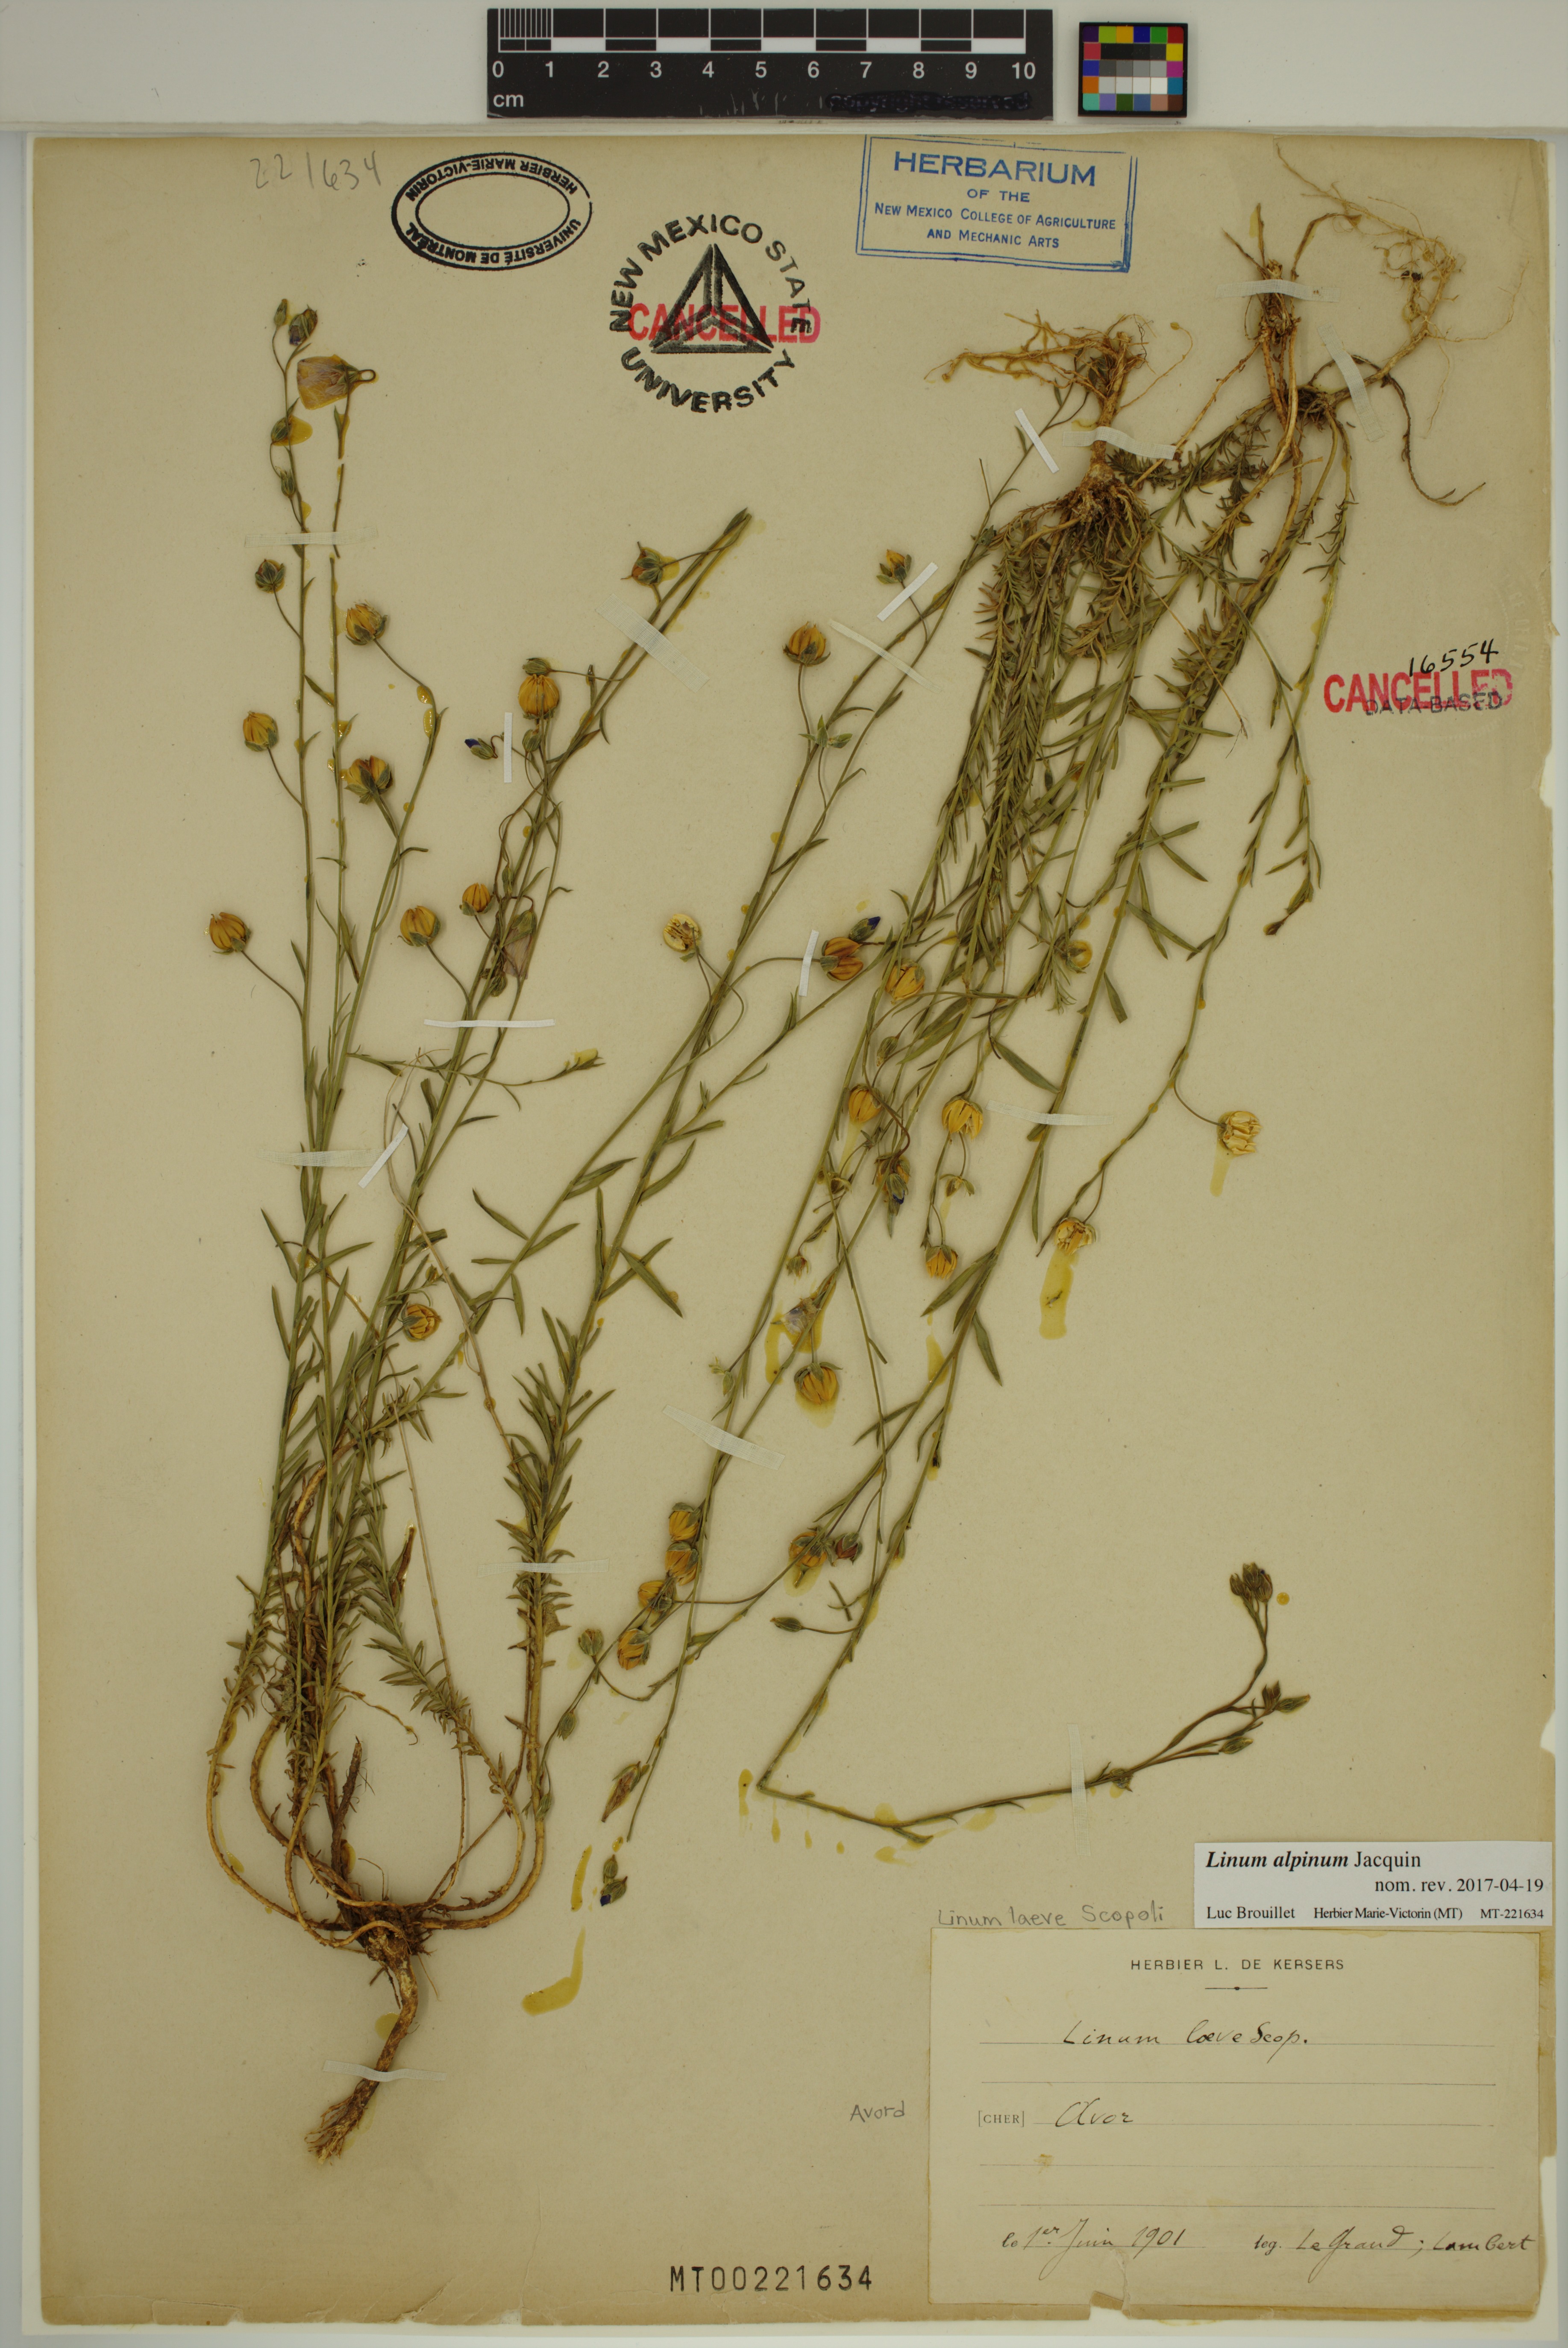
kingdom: Plantae
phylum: Tracheophyta
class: Magnoliopsida
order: Malpighiales
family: Linaceae
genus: Linum
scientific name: Linum alpinum
